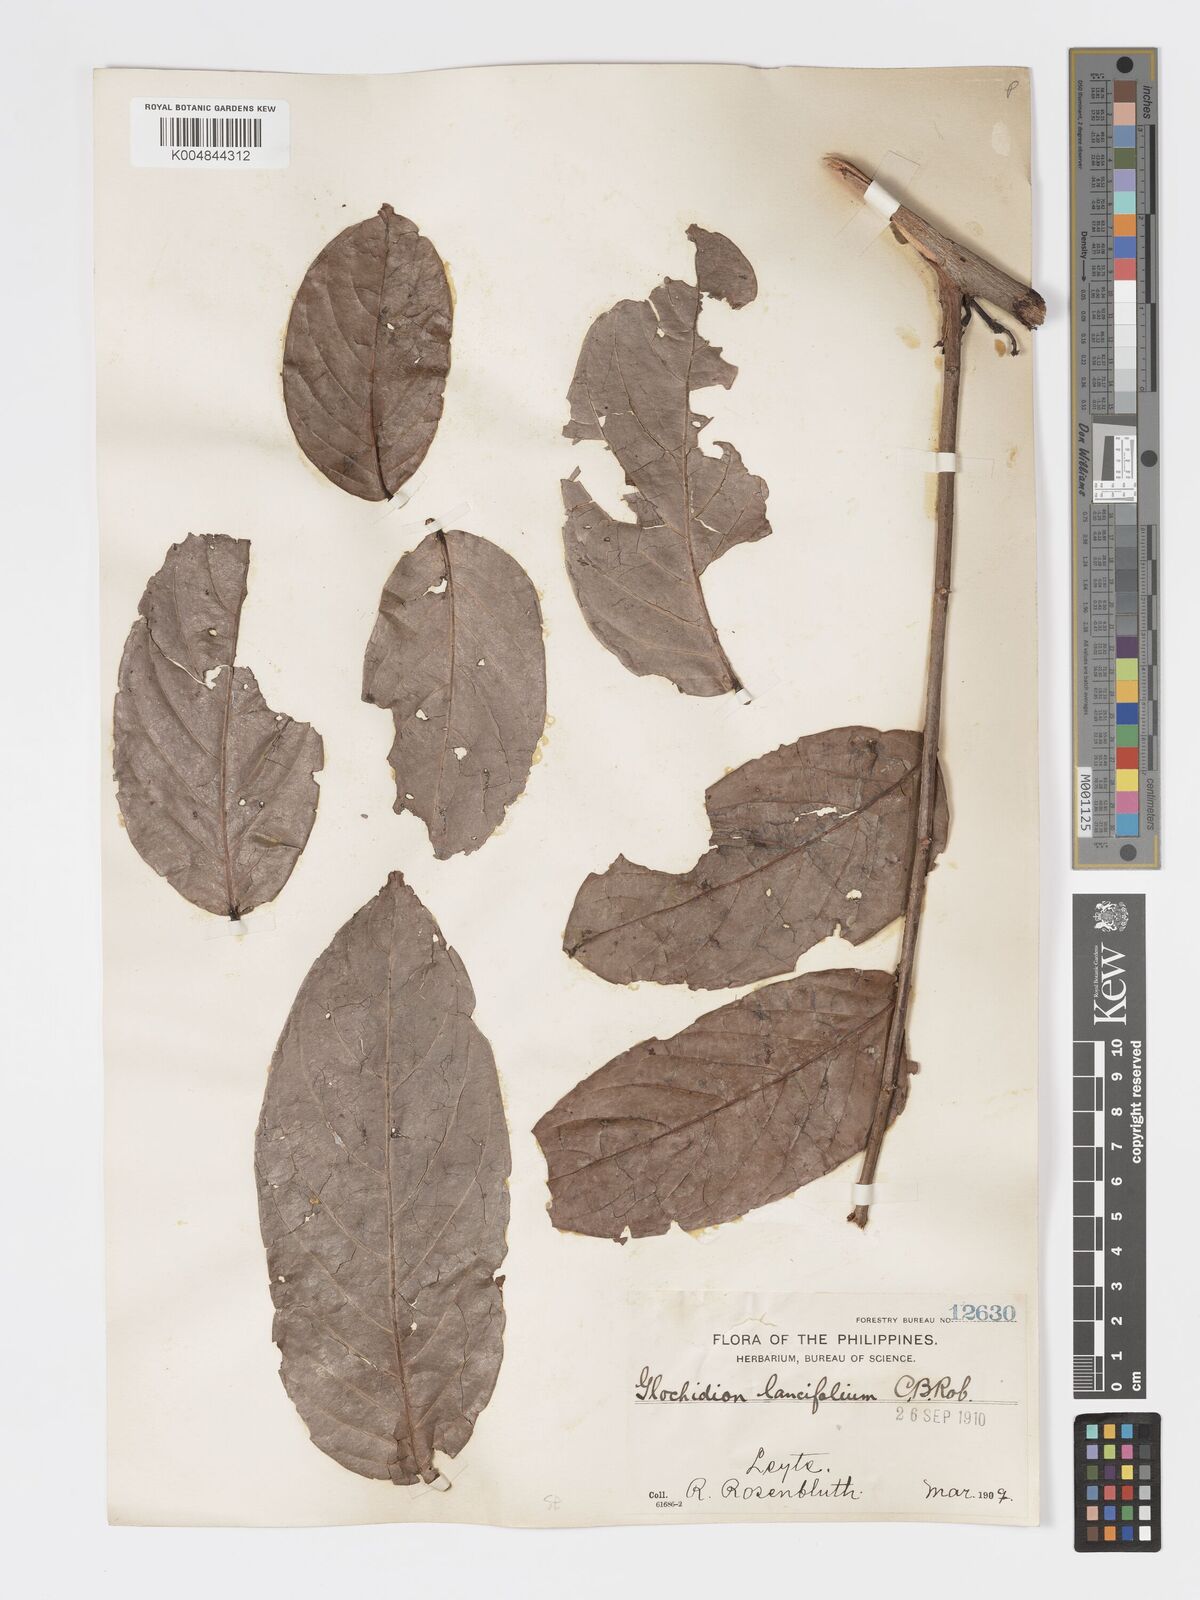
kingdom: Plantae
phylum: Tracheophyta
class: Magnoliopsida
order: Malpighiales
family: Phyllanthaceae
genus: Glochidion
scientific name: Glochidion zeylanicum
